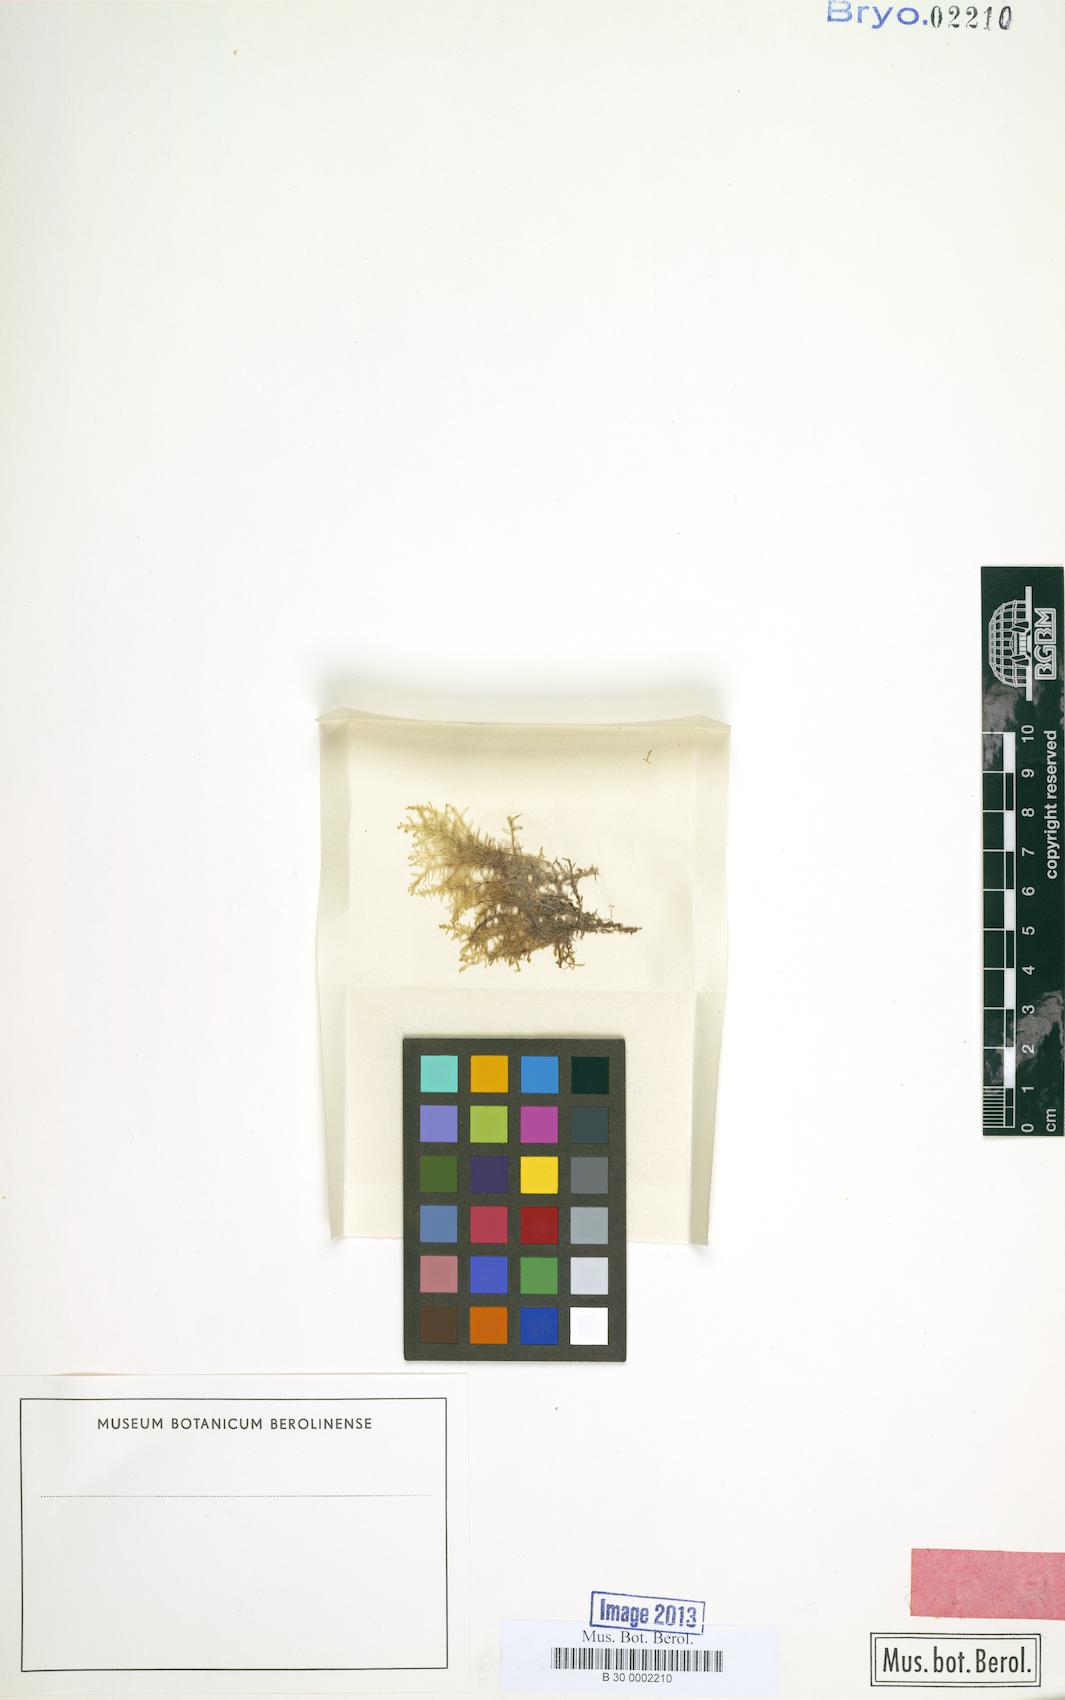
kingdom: Plantae
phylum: Marchantiophyta
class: Jungermanniopsida
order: Metzgeriales
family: Metzgeriaceae
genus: Metzgeria
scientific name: Metzgeria filicina
